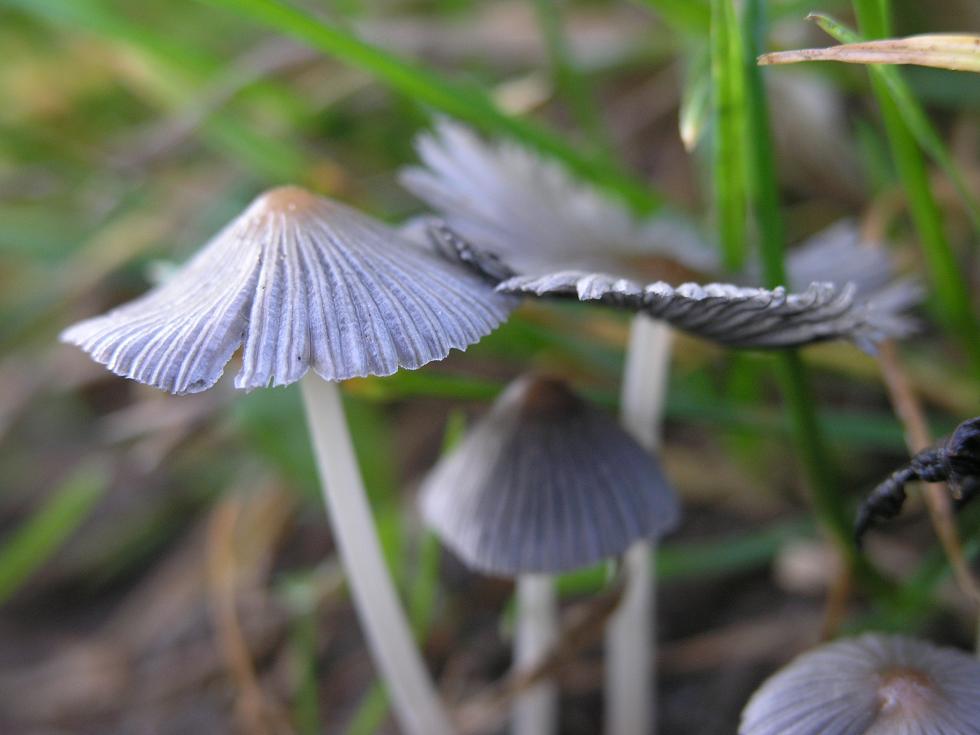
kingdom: Fungi
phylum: Basidiomycota
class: Agaricomycetes
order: Agaricales
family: Psathyrellaceae
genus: Tulosesus
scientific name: Tulosesus callinus
